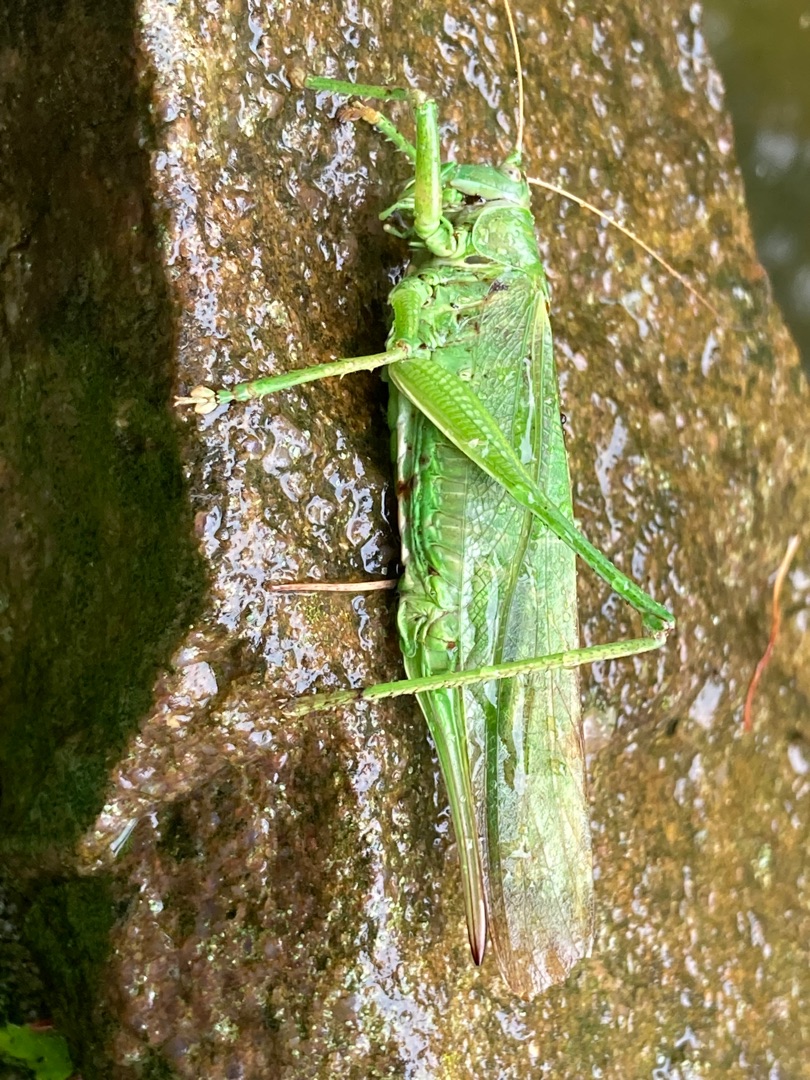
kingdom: Animalia
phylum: Arthropoda
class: Insecta
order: Orthoptera
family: Tettigoniidae
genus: Tettigonia
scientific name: Tettigonia viridissima
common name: Stor grøn løvgræshoppe
